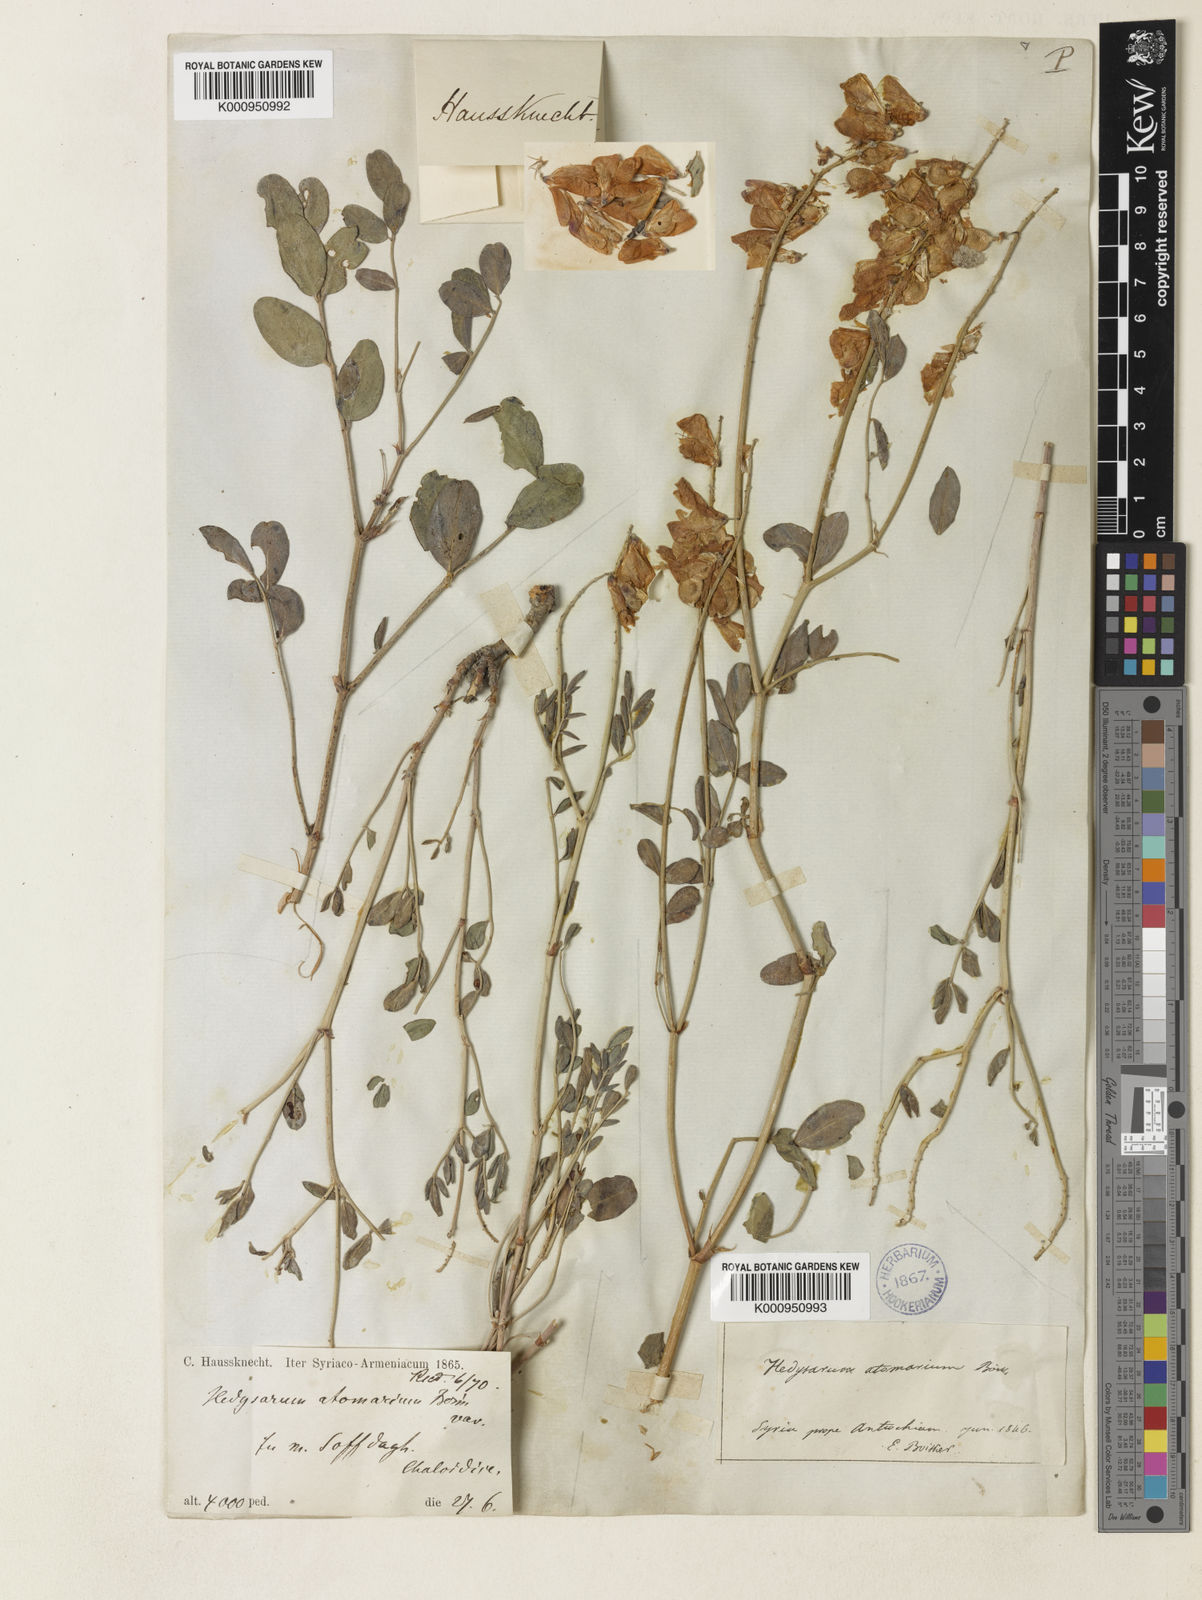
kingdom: Plantae
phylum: Tracheophyta
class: Magnoliopsida
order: Fabales
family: Fabaceae
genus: Hedysarum
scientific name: Hedysarum syriacum
